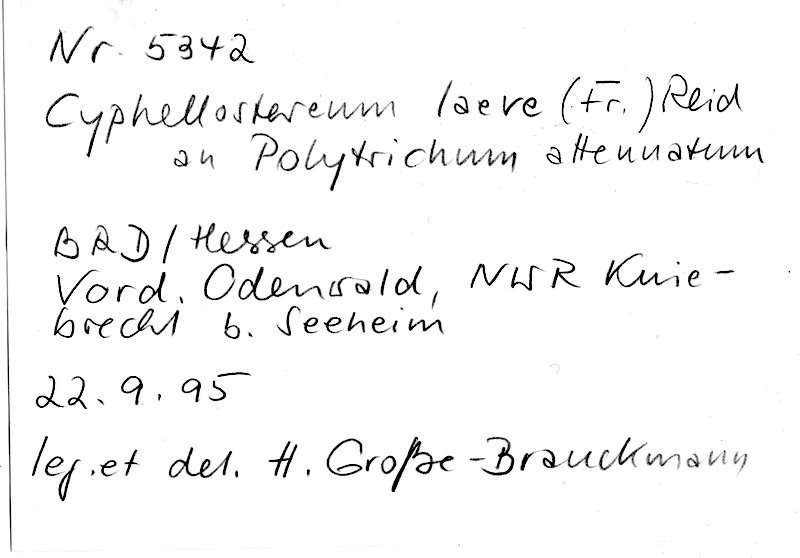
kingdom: Plantae
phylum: Bryophyta
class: Polytrichopsida
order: Polytrichales
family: Polytrichaceae
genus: Polytrichum
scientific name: Polytrichum formosum
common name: Bank haircap moss
